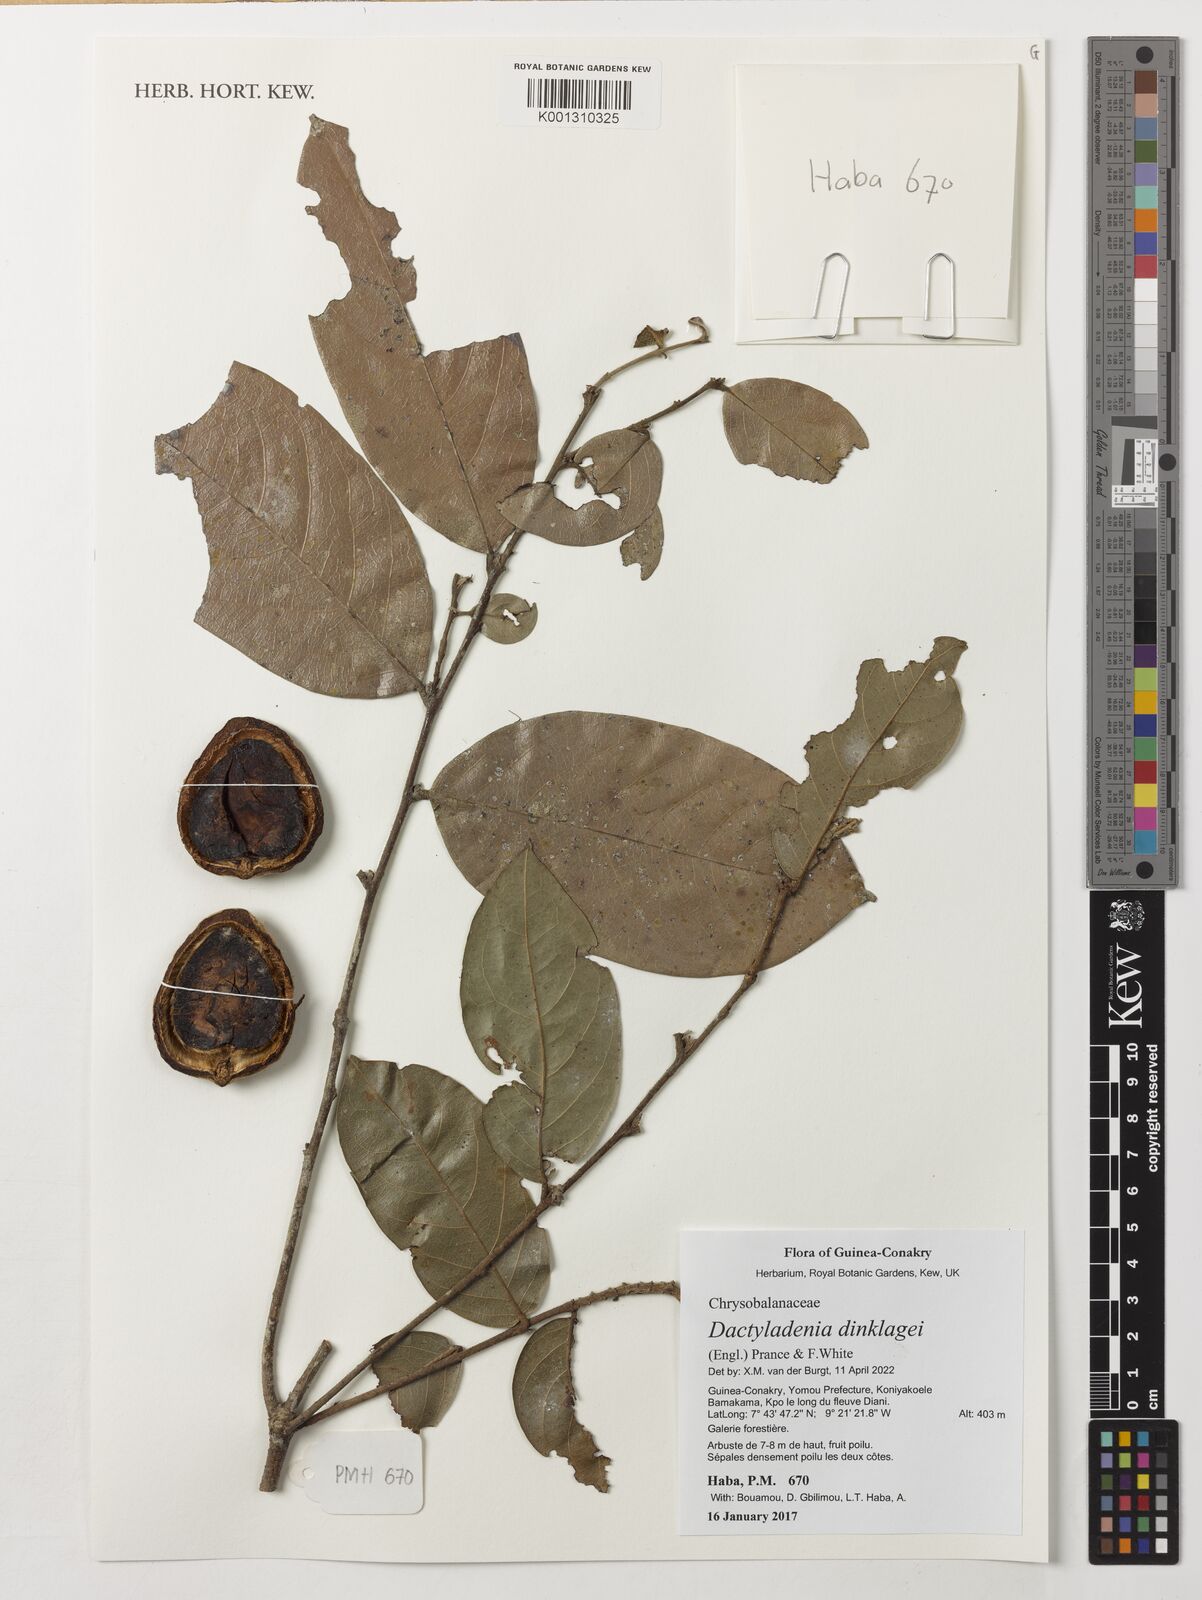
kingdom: Plantae
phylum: Tracheophyta
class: Magnoliopsida
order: Malpighiales
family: Chrysobalanaceae
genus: Dactyladenia
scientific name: Dactyladenia dinklagei
